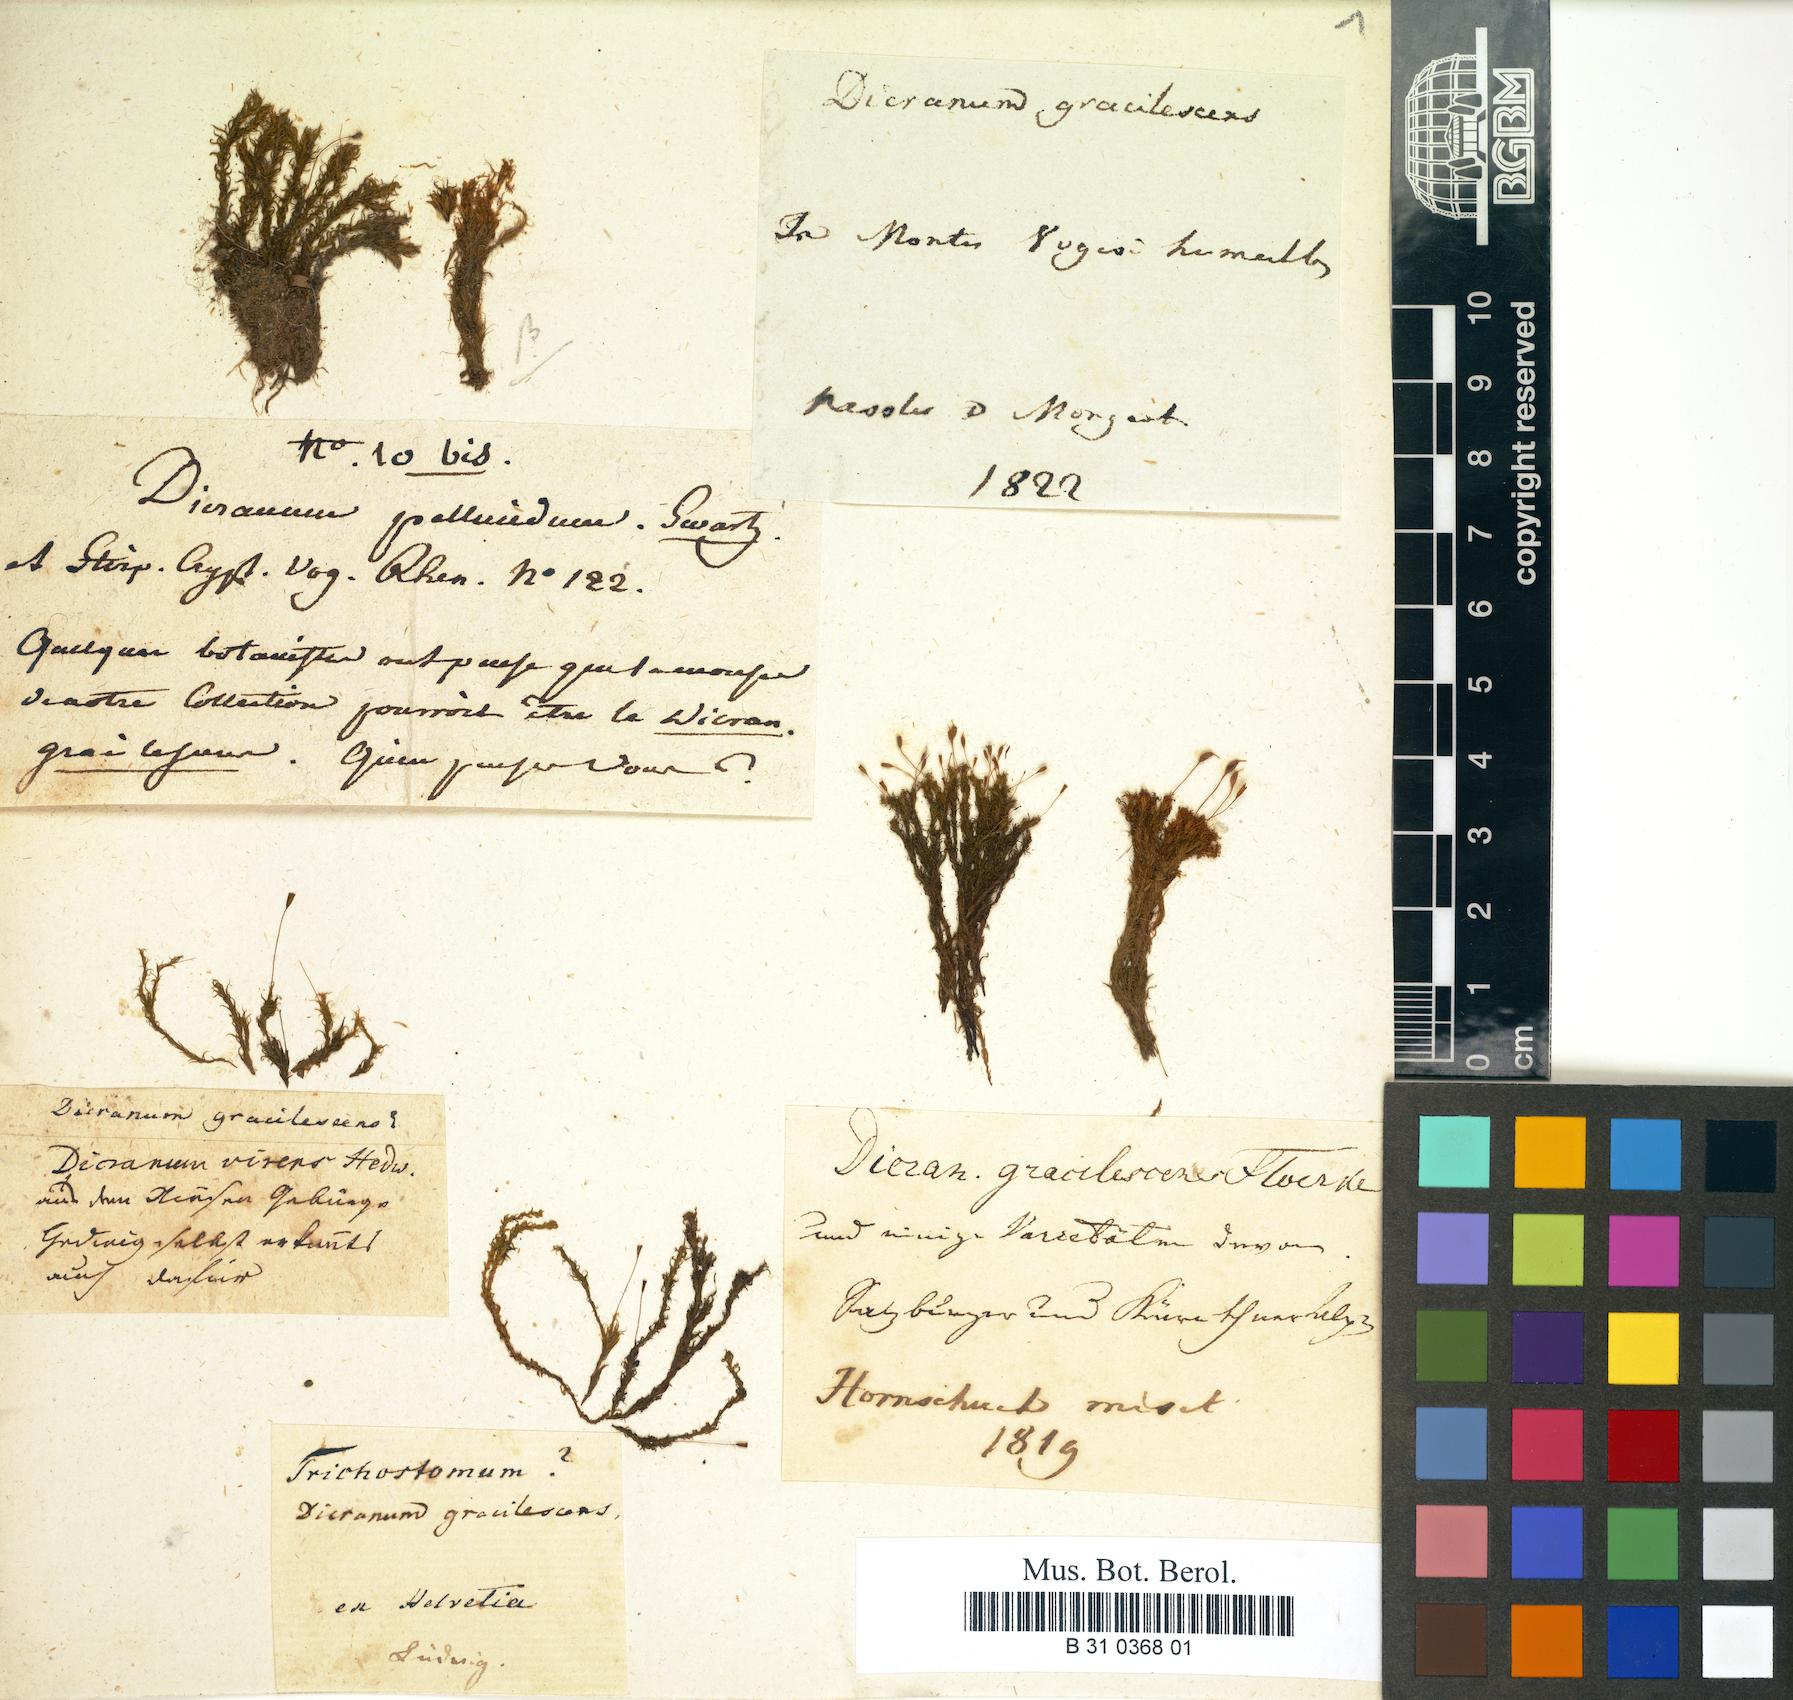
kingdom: Plantae
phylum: Bryophyta
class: Bryopsida
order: Dicranales
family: Rhabdoweisiaceae
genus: Cynodontium
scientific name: Cynodontium gracilescens
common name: Slender dogtooth moss
